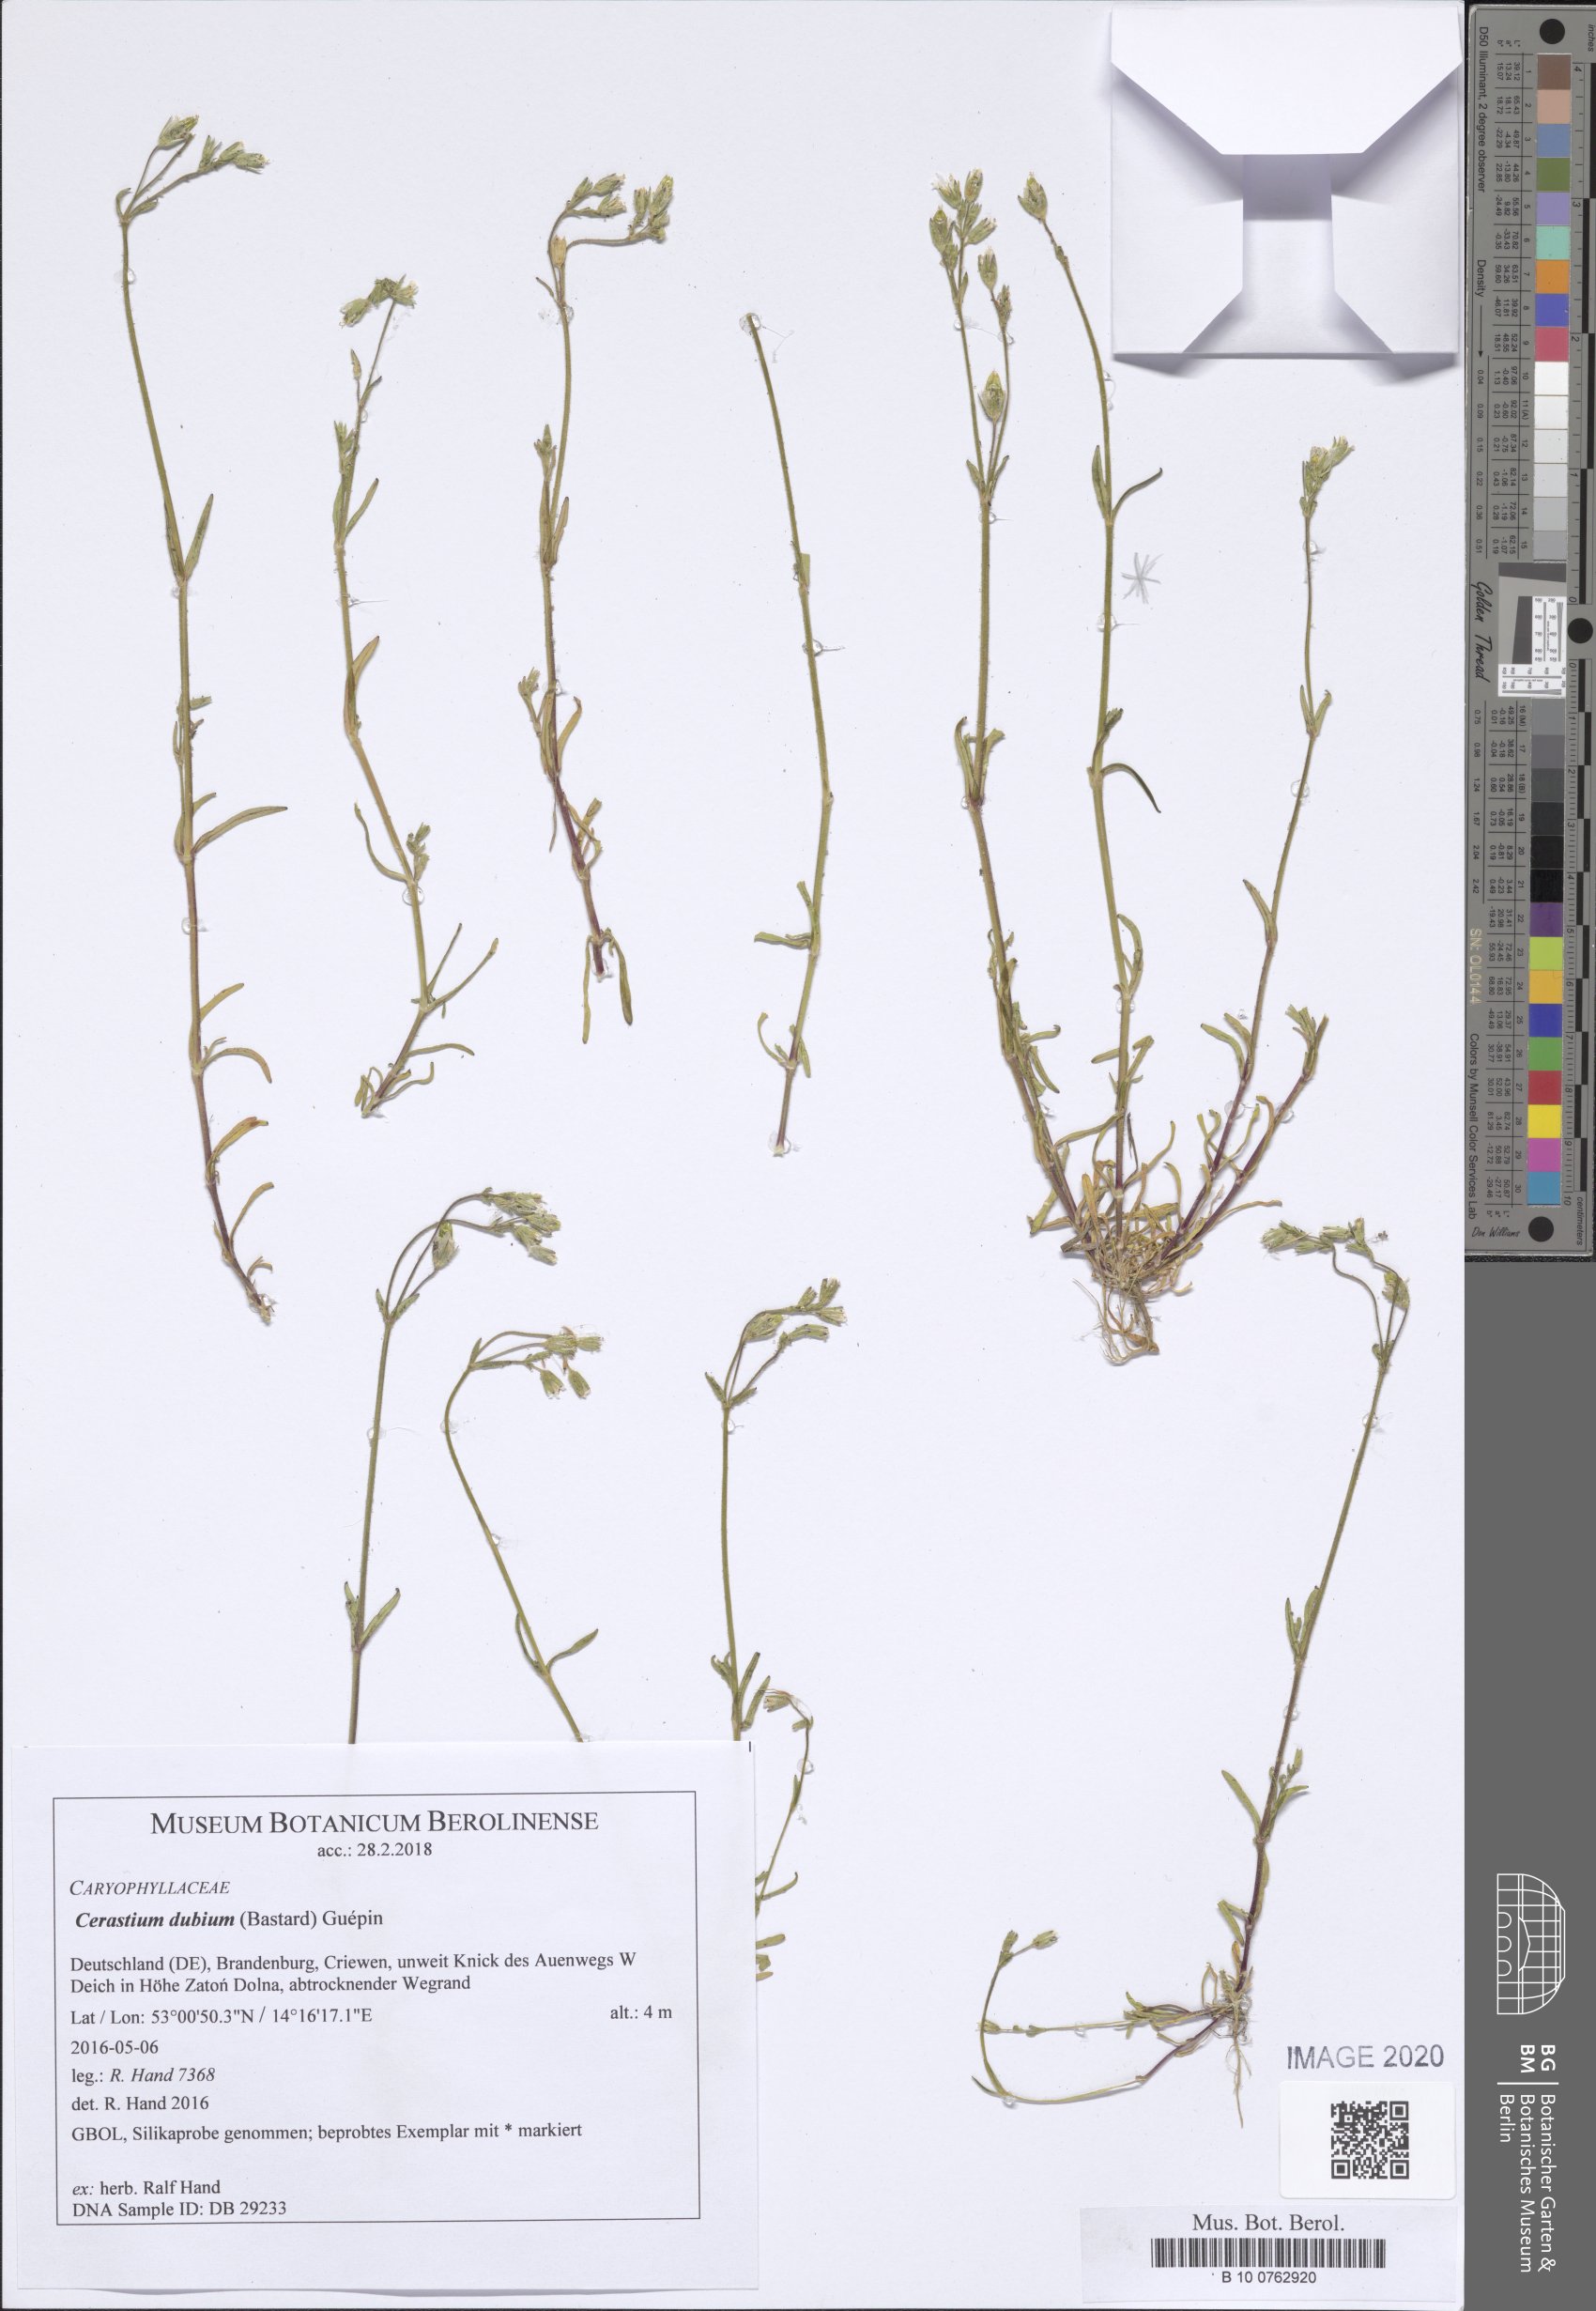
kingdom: Plantae
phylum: Tracheophyta
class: Magnoliopsida
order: Caryophyllales
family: Caryophyllaceae
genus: Dichodon
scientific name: Dichodon viscidum
